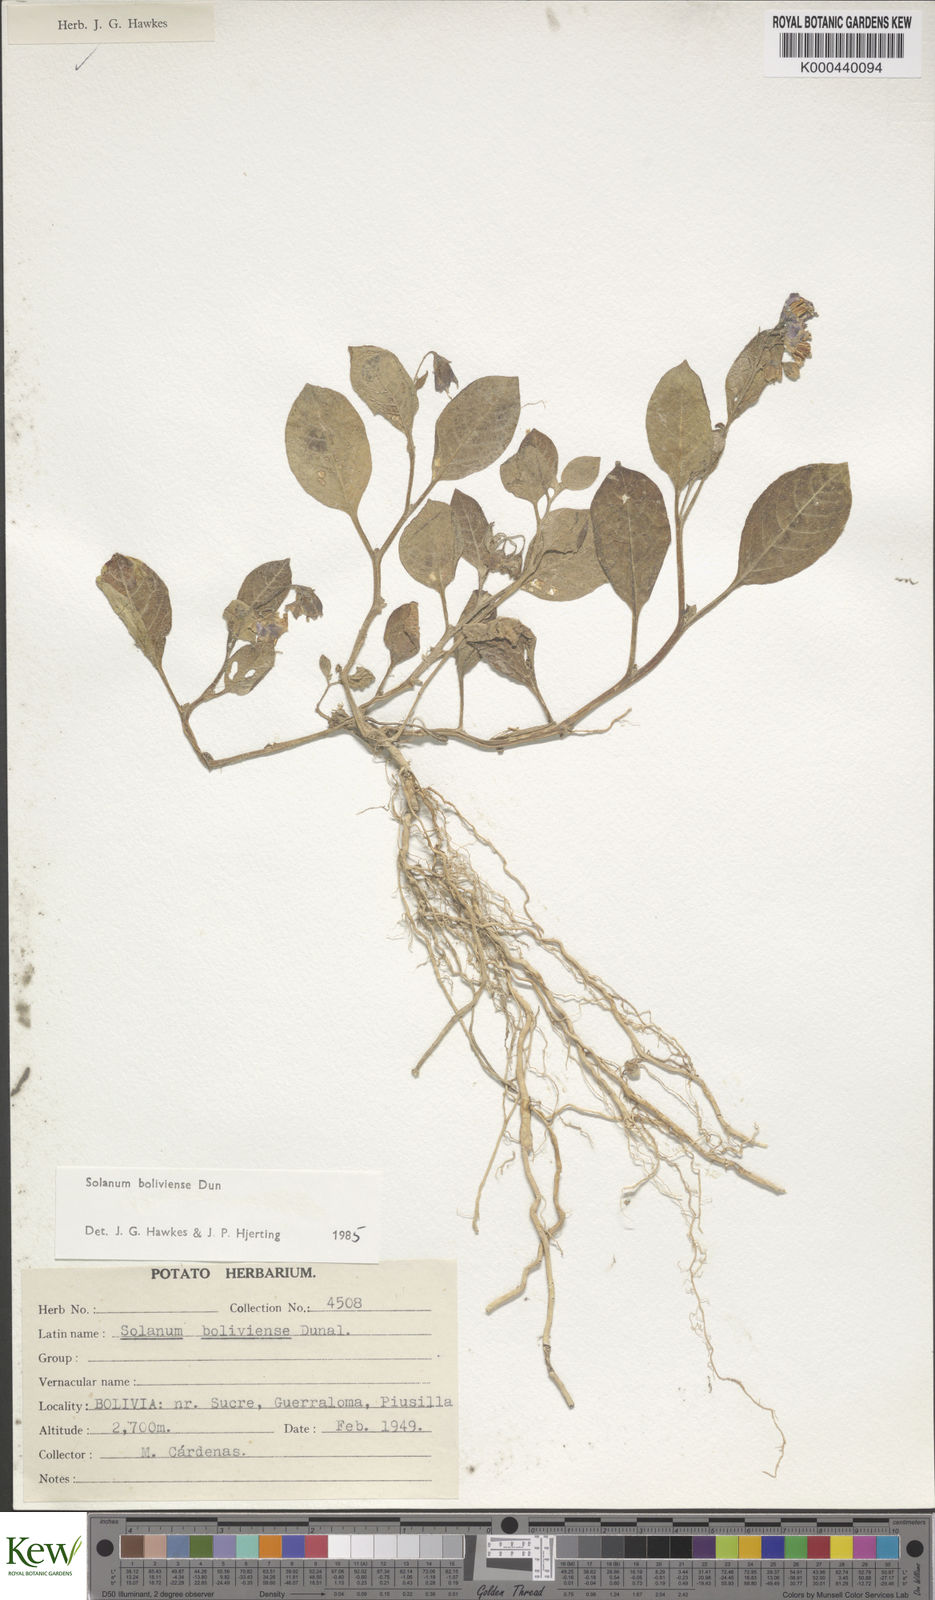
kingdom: Plantae
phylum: Tracheophyta
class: Magnoliopsida
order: Solanales
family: Solanaceae
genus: Solanum
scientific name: Solanum boliviense
